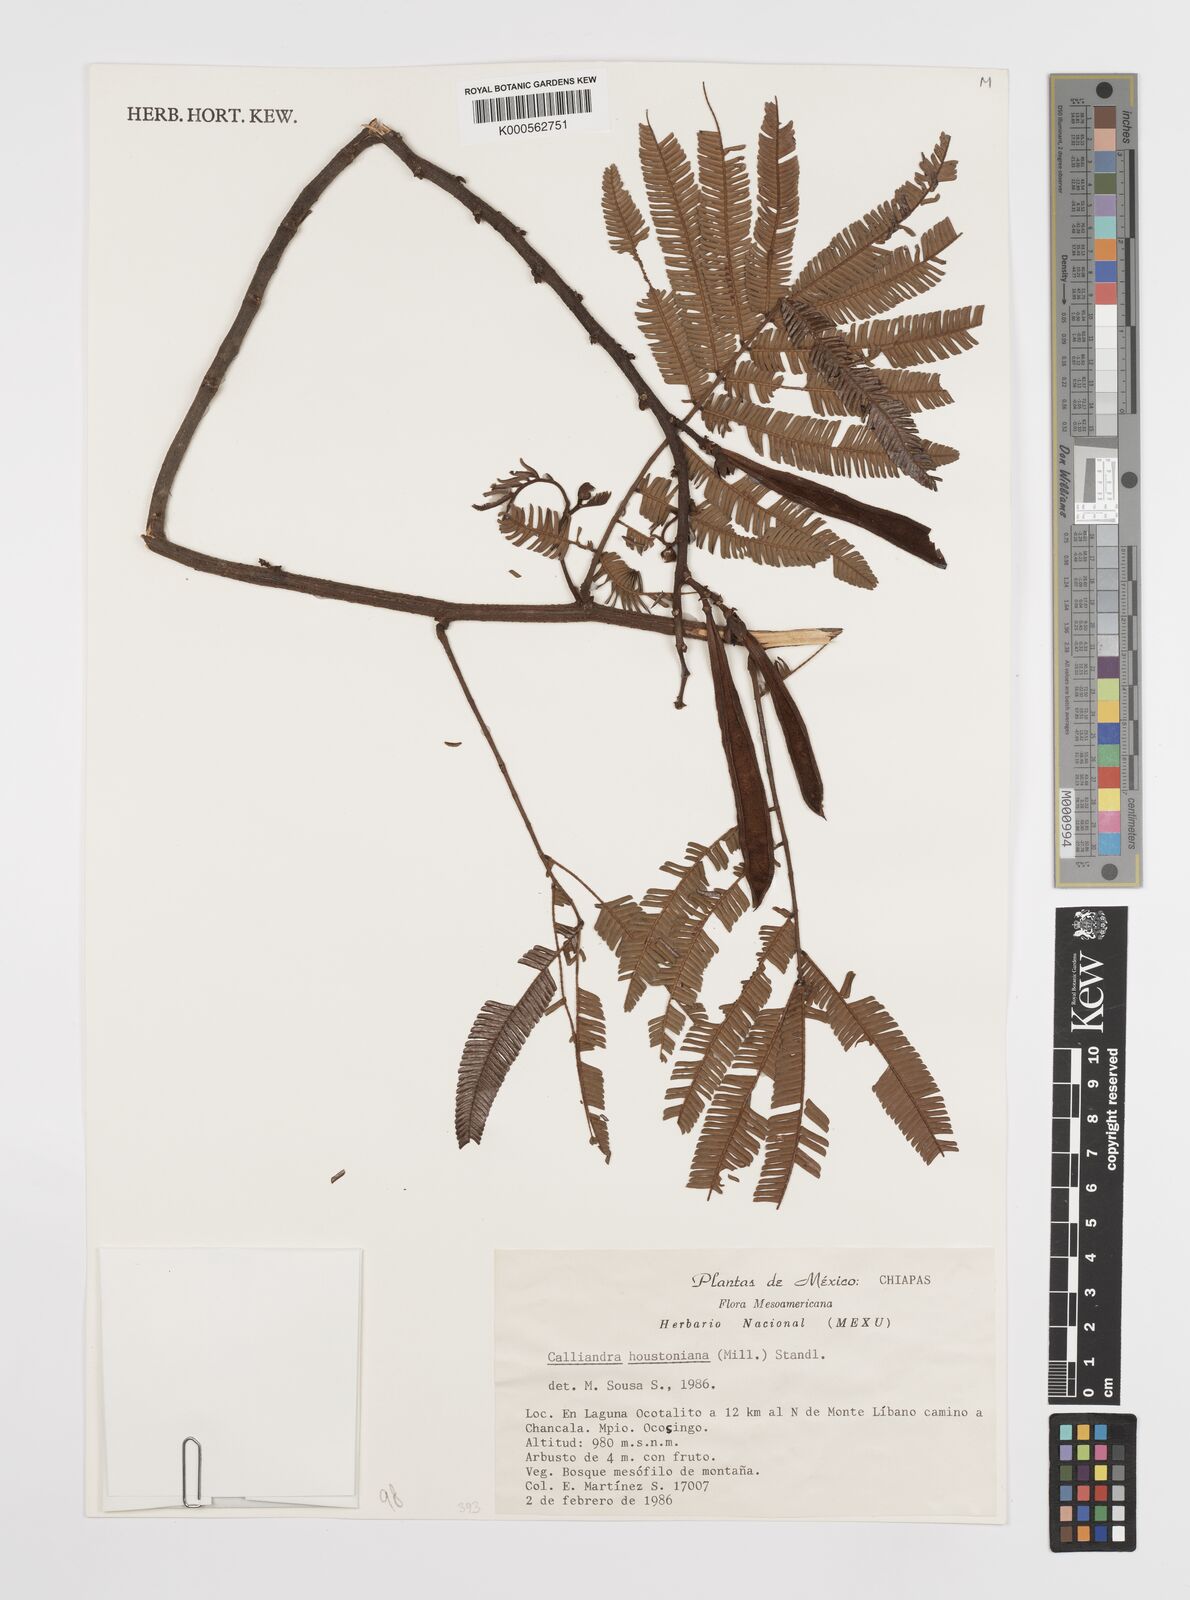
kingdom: Plantae
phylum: Tracheophyta
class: Magnoliopsida
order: Fabales
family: Fabaceae
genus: Calliandra
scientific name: Calliandra houstoniana
